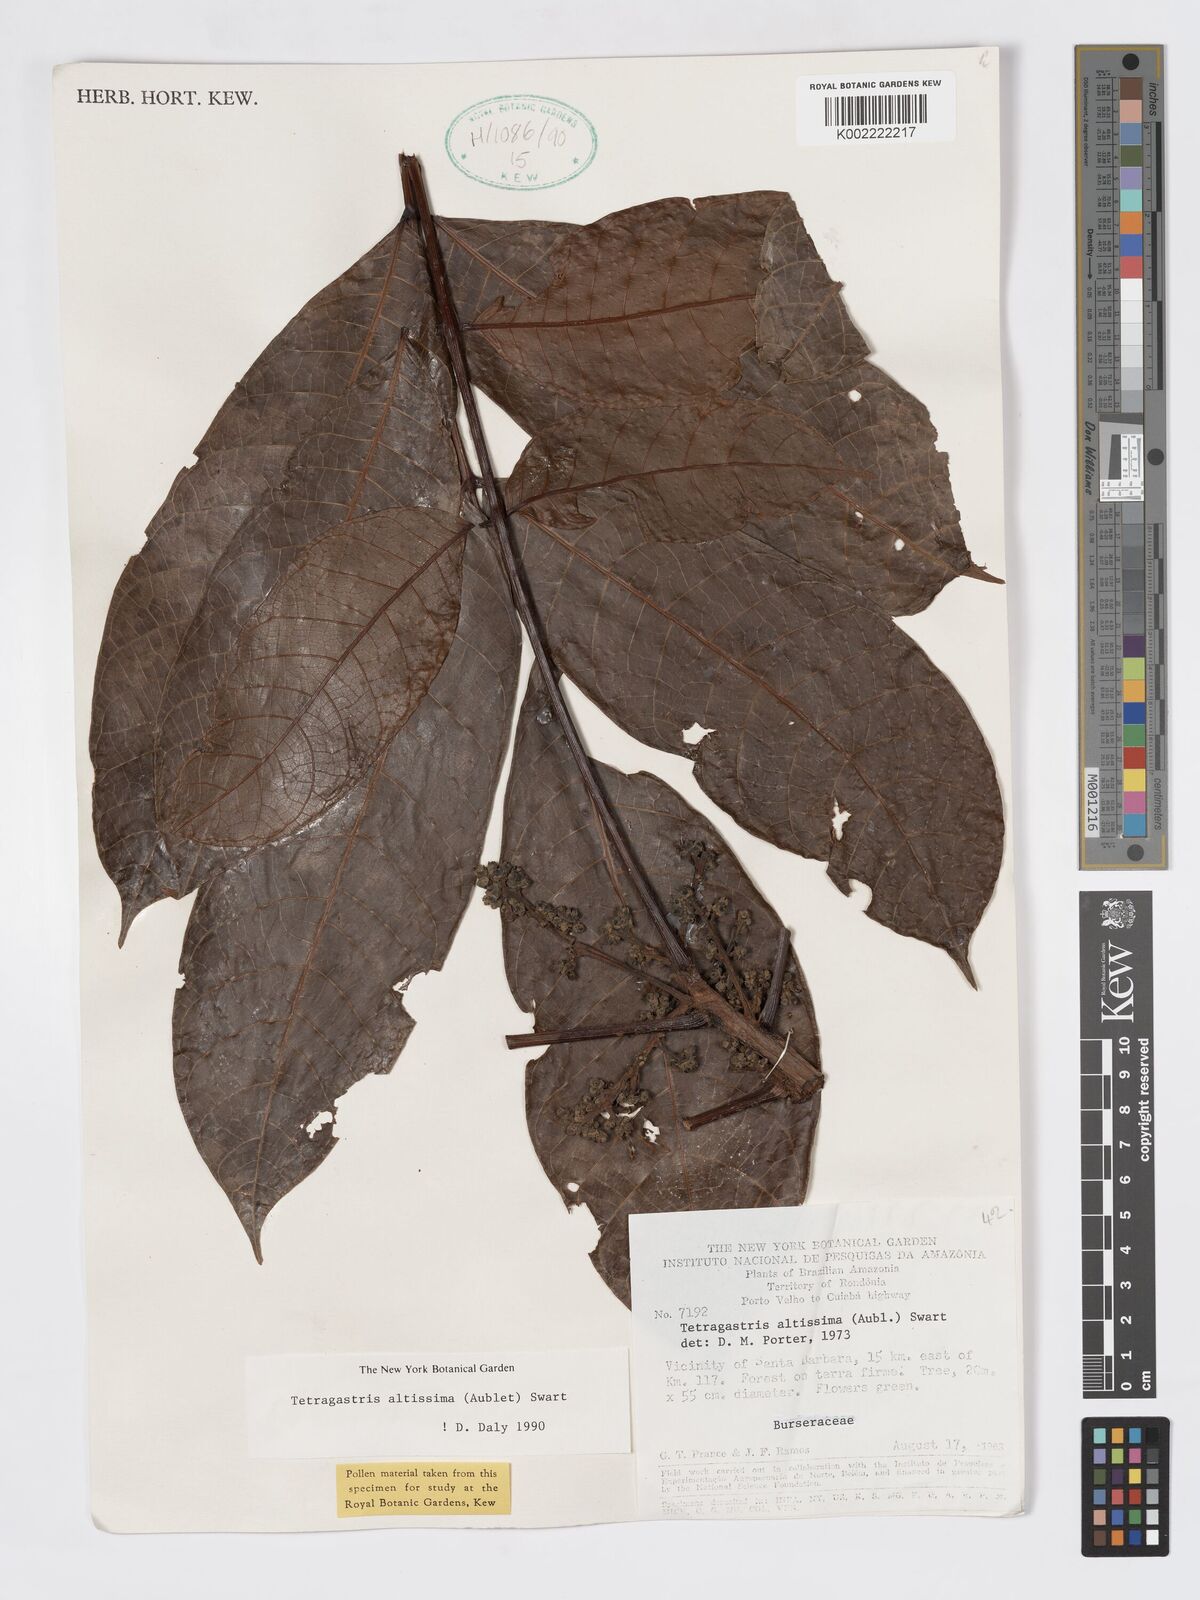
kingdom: Plantae
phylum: Tracheophyta
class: Magnoliopsida
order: Sapindales
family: Burseraceae
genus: Tetragastris
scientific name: Tetragastris altissima
